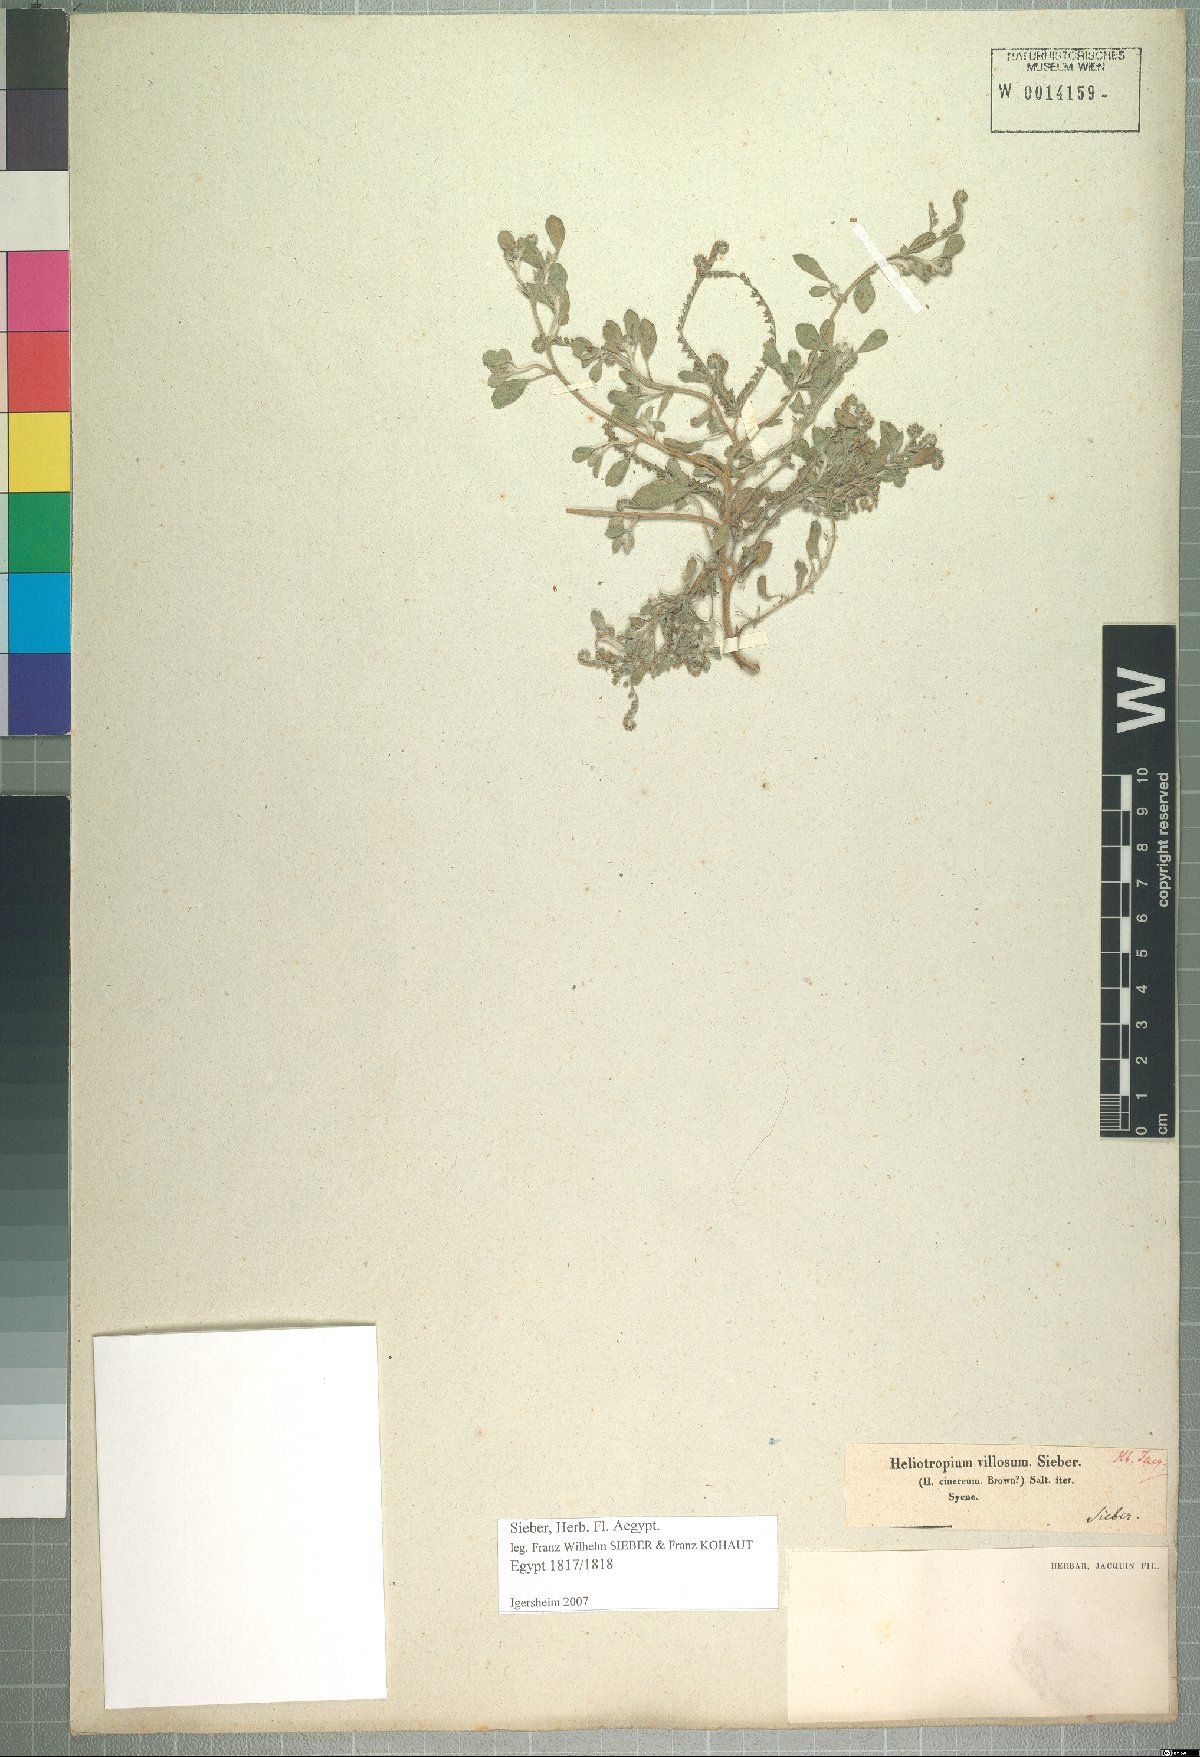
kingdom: Plantae
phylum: Tracheophyta
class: Magnoliopsida
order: Boraginales
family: Heliotropiaceae
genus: Euploca
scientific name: Euploca ovalifolia
